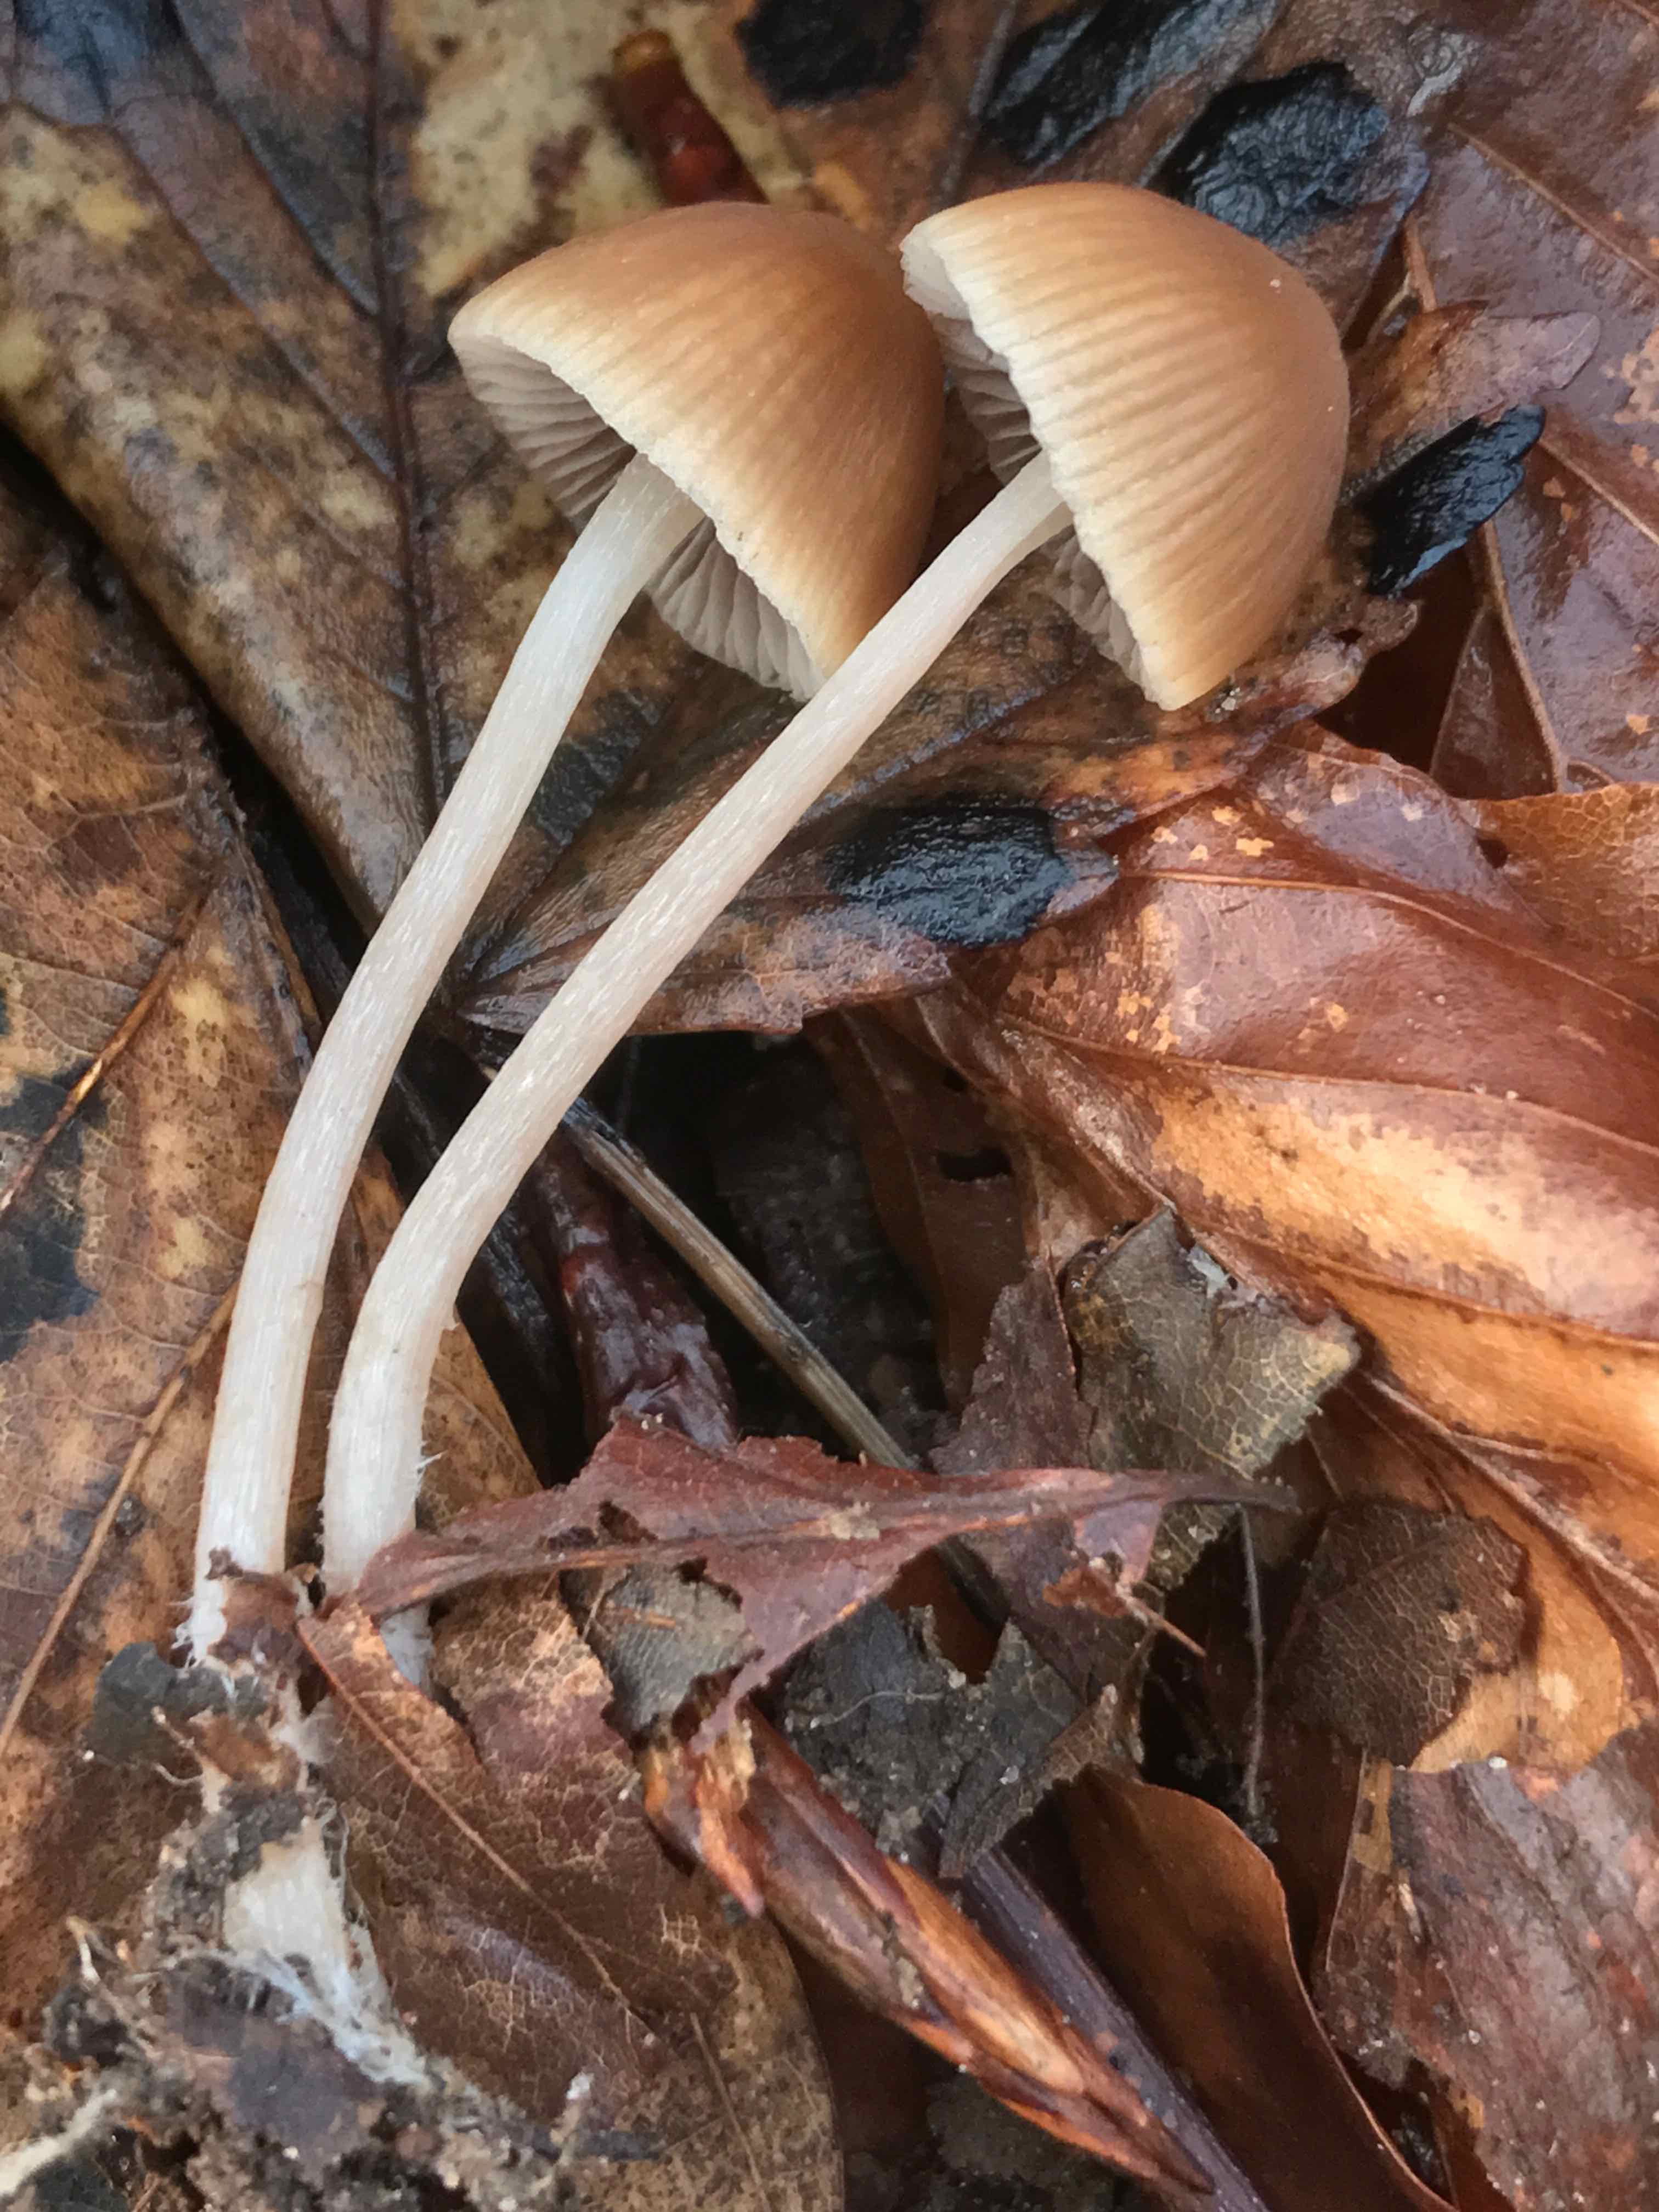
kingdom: Fungi
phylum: Basidiomycota
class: Agaricomycetes
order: Agaricales
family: Psathyrellaceae
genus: Psathyrella
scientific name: Psathyrella
